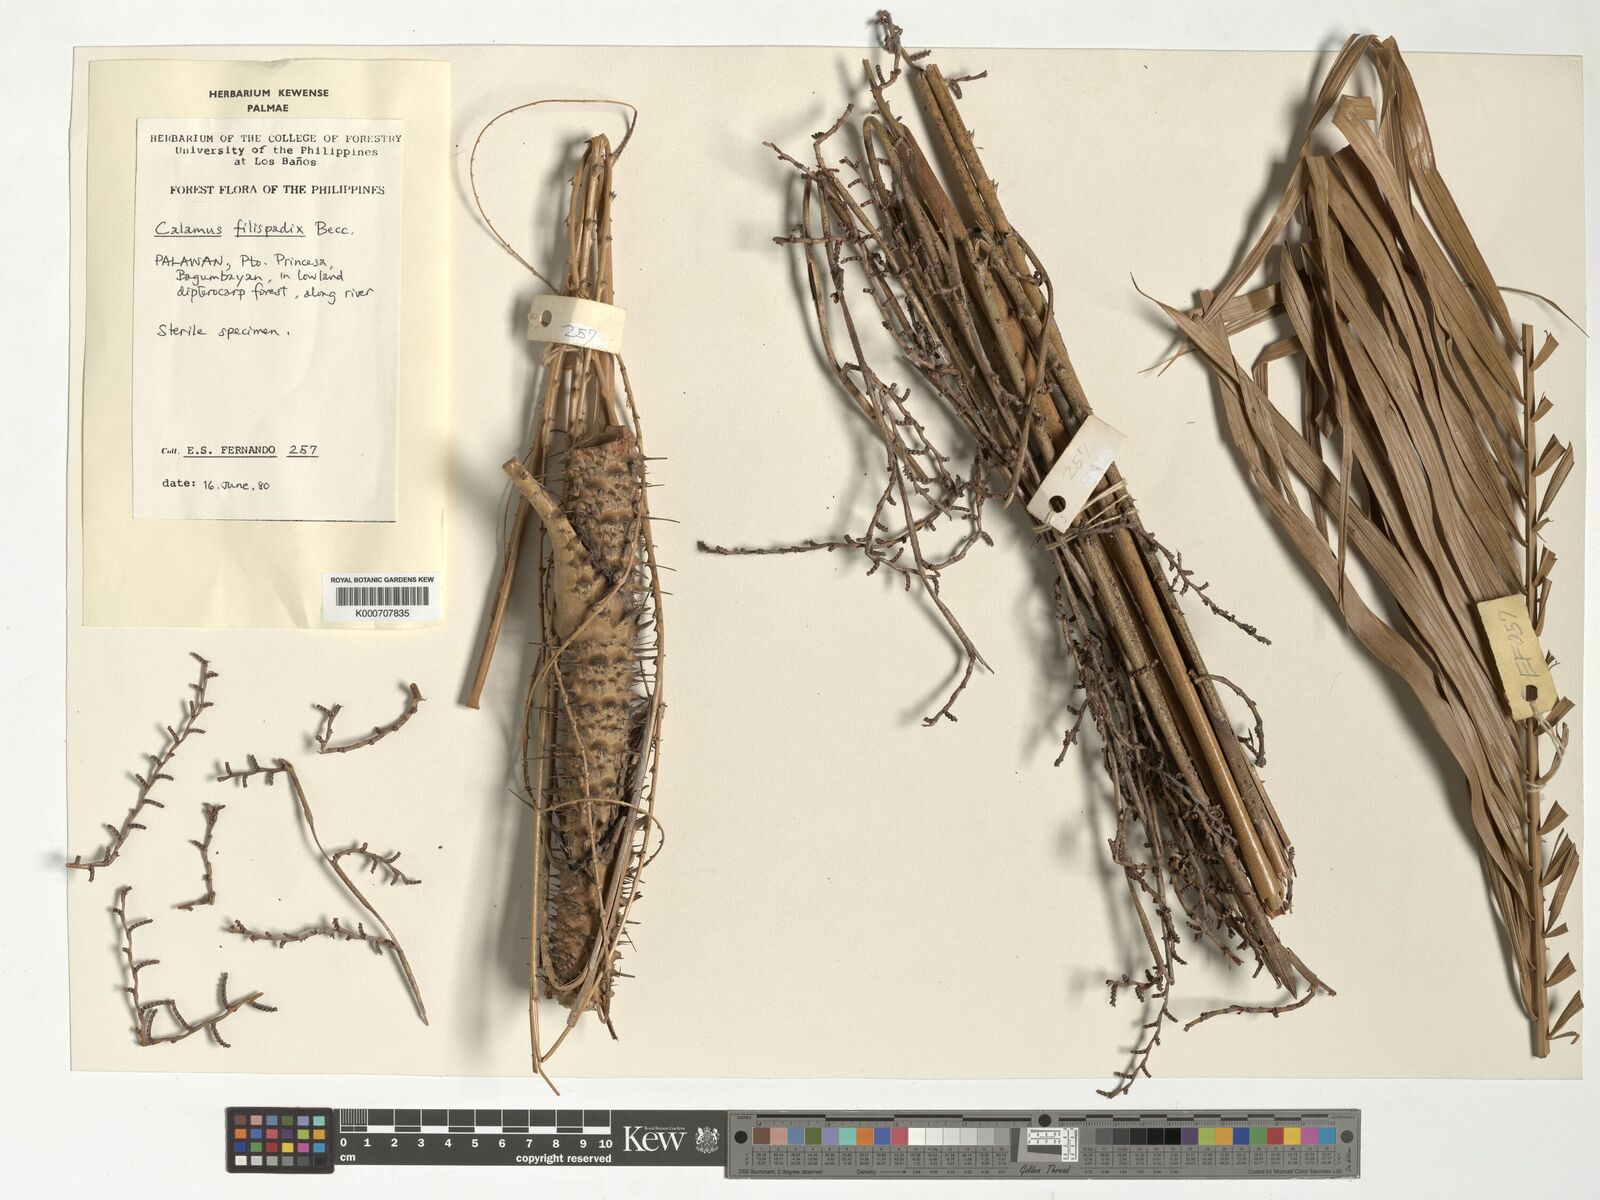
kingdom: Plantae
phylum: Tracheophyta
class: Liliopsida
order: Arecales
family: Arecaceae
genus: Calamus
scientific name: Calamus filispadix
